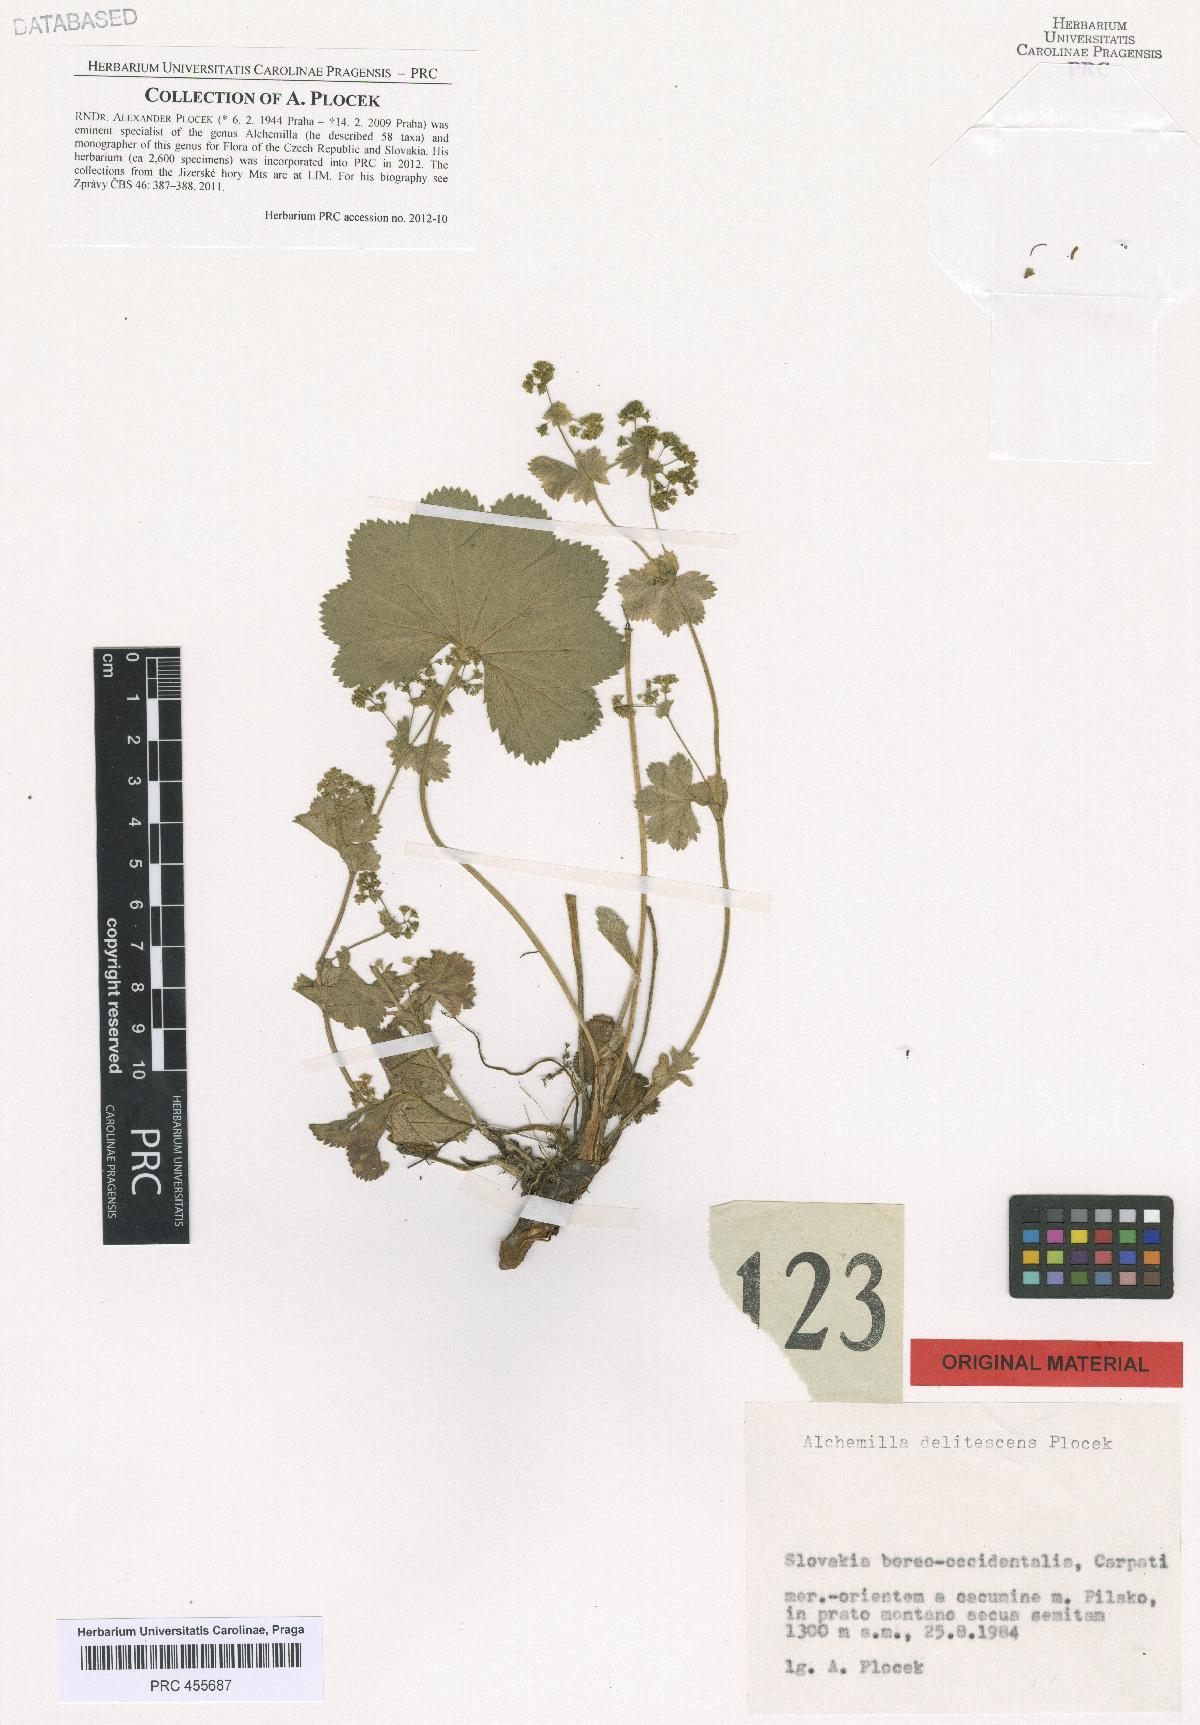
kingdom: Plantae
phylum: Tracheophyta
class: Magnoliopsida
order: Rosales
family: Rosaceae
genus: Alchemilla
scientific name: Alchemilla delitescens
